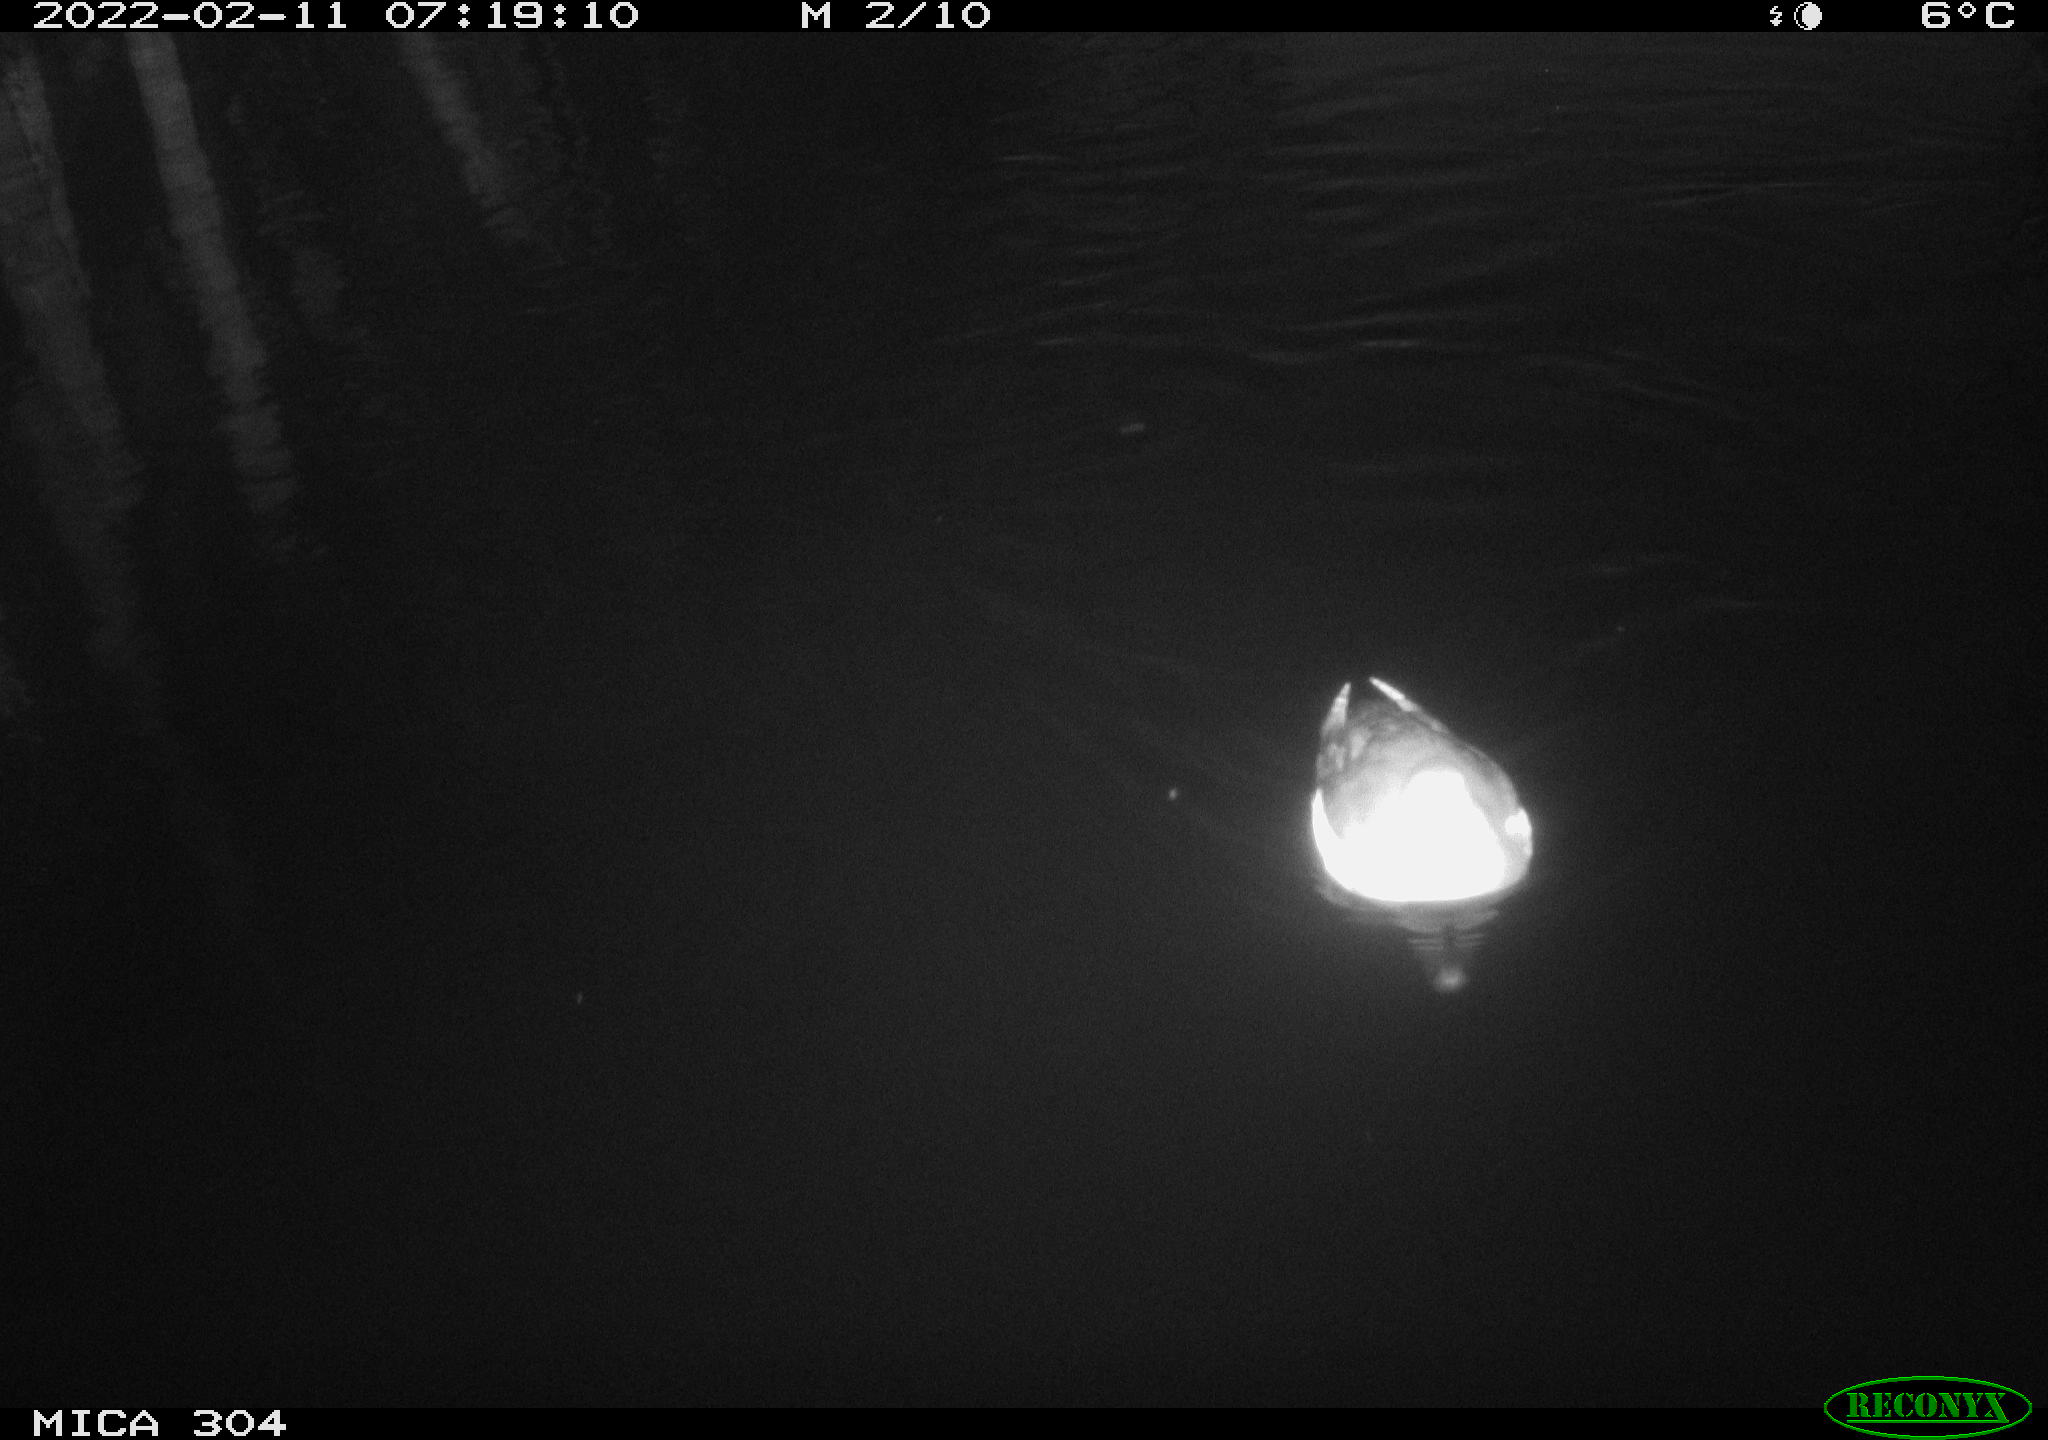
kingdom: Animalia
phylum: Chordata
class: Aves
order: Gruiformes
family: Rallidae
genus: Gallinula
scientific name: Gallinula chloropus
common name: Common moorhen
